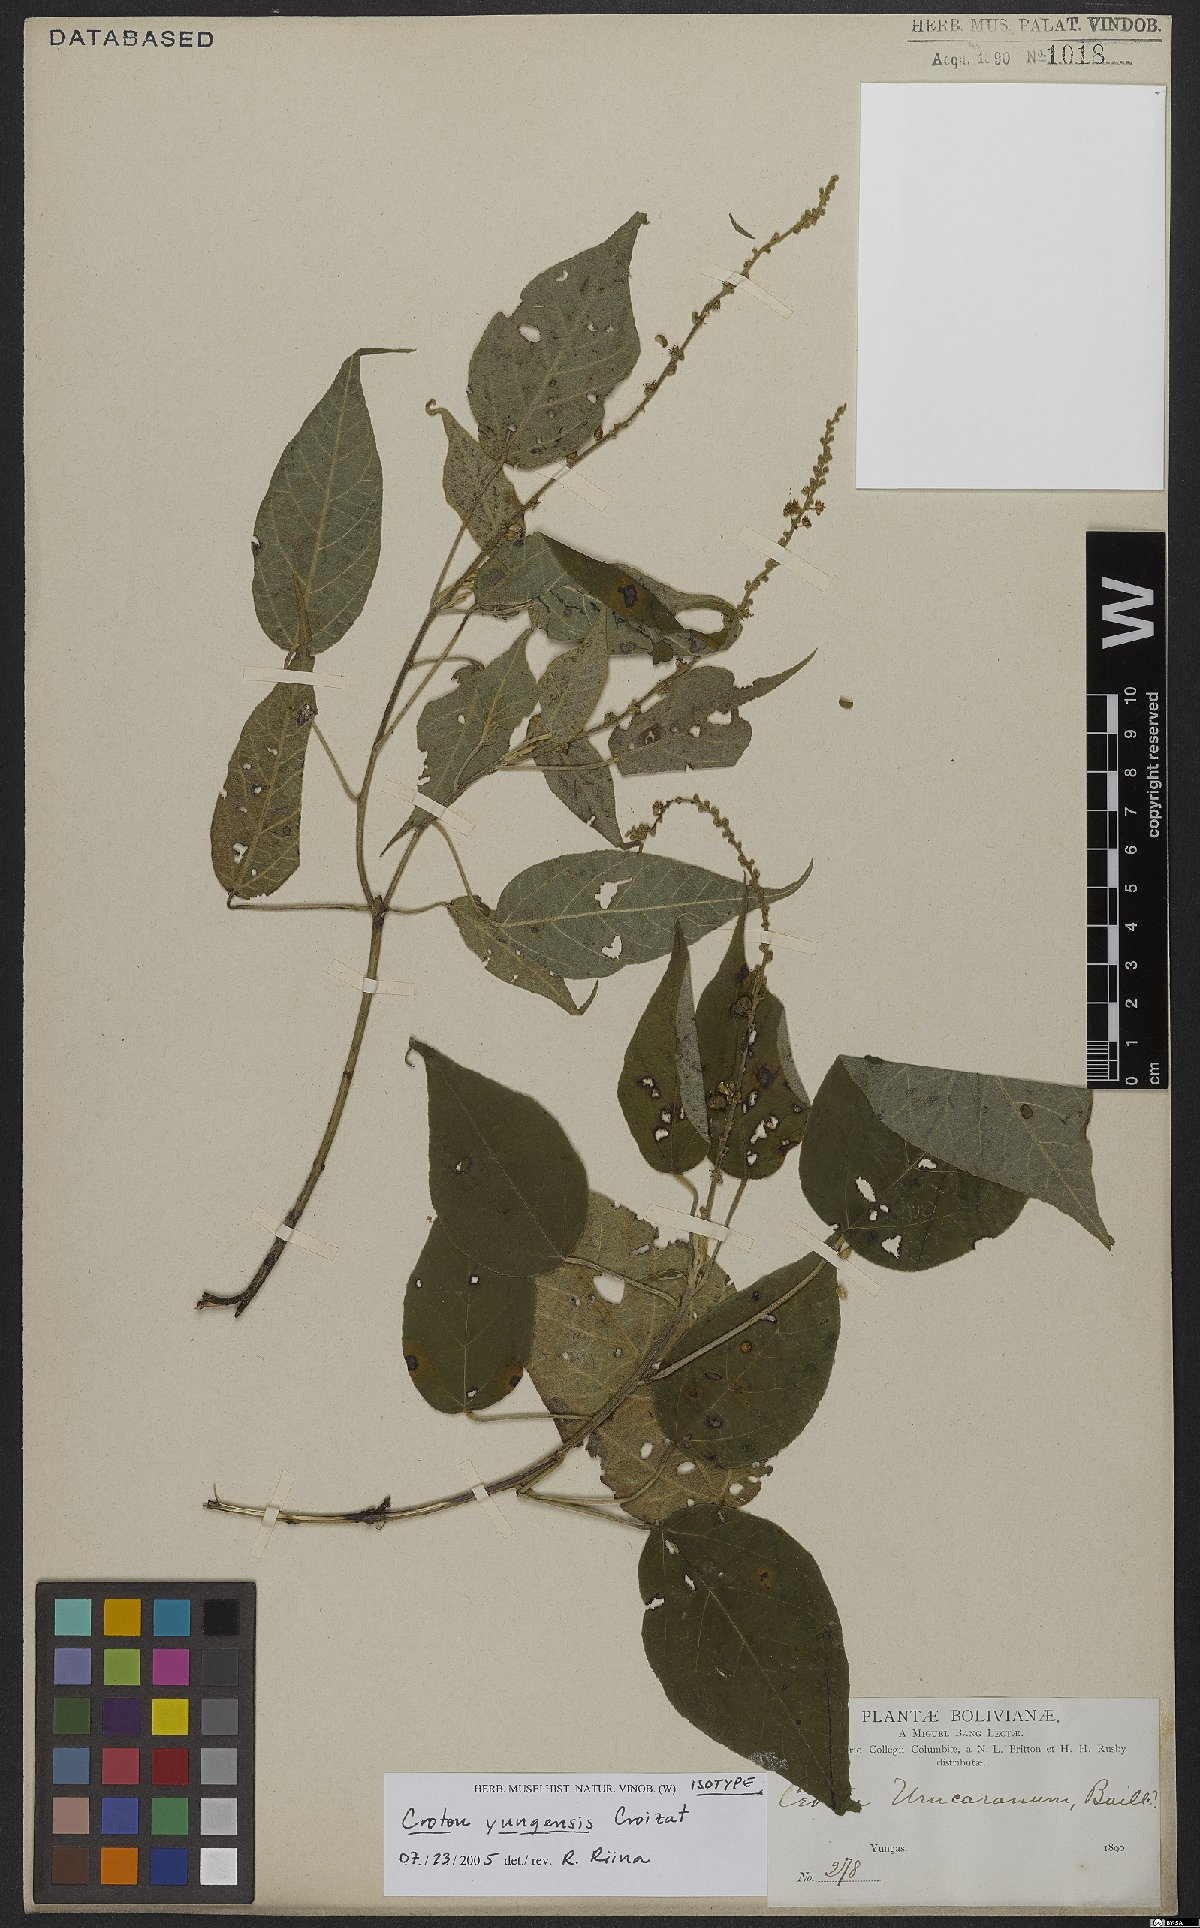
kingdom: Plantae
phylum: Tracheophyta
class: Magnoliopsida
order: Malpighiales
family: Euphorbiaceae
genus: Croton
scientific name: Croton yungensis
